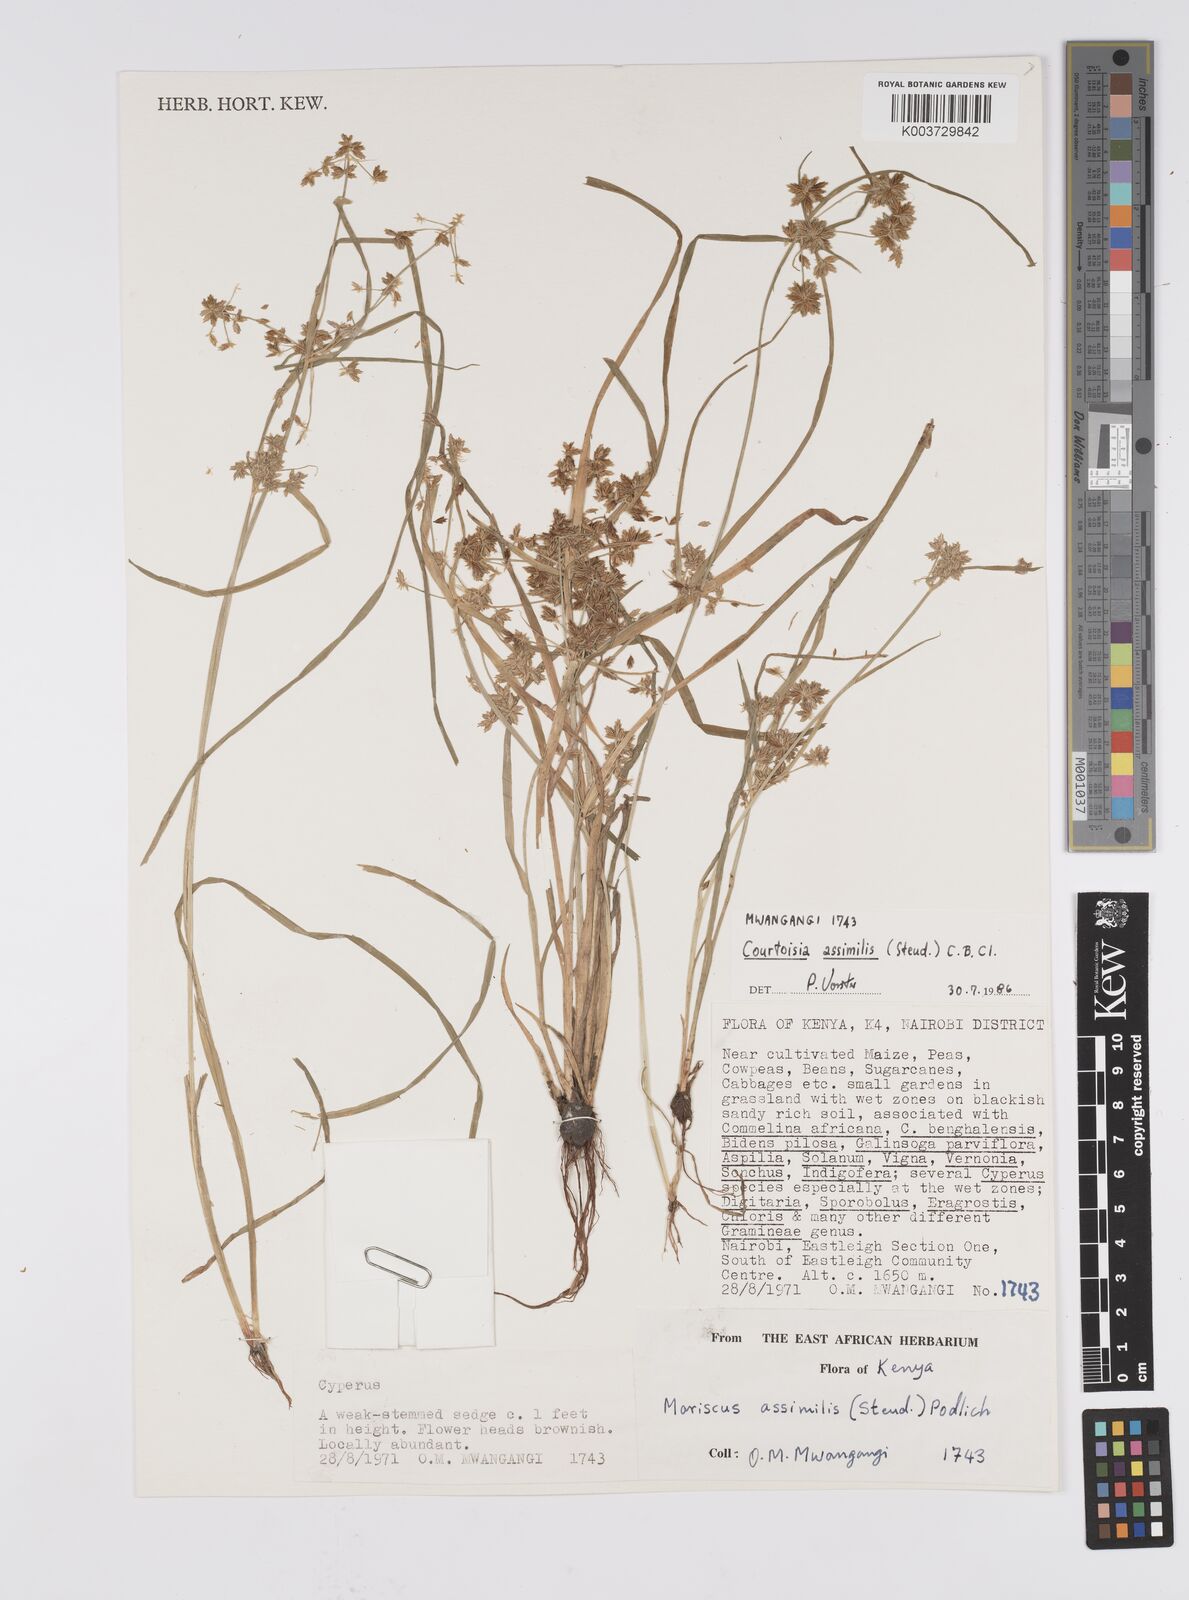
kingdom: Plantae
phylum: Tracheophyta
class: Liliopsida
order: Poales
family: Cyperaceae
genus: Cyperus
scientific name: Cyperus assimilis
